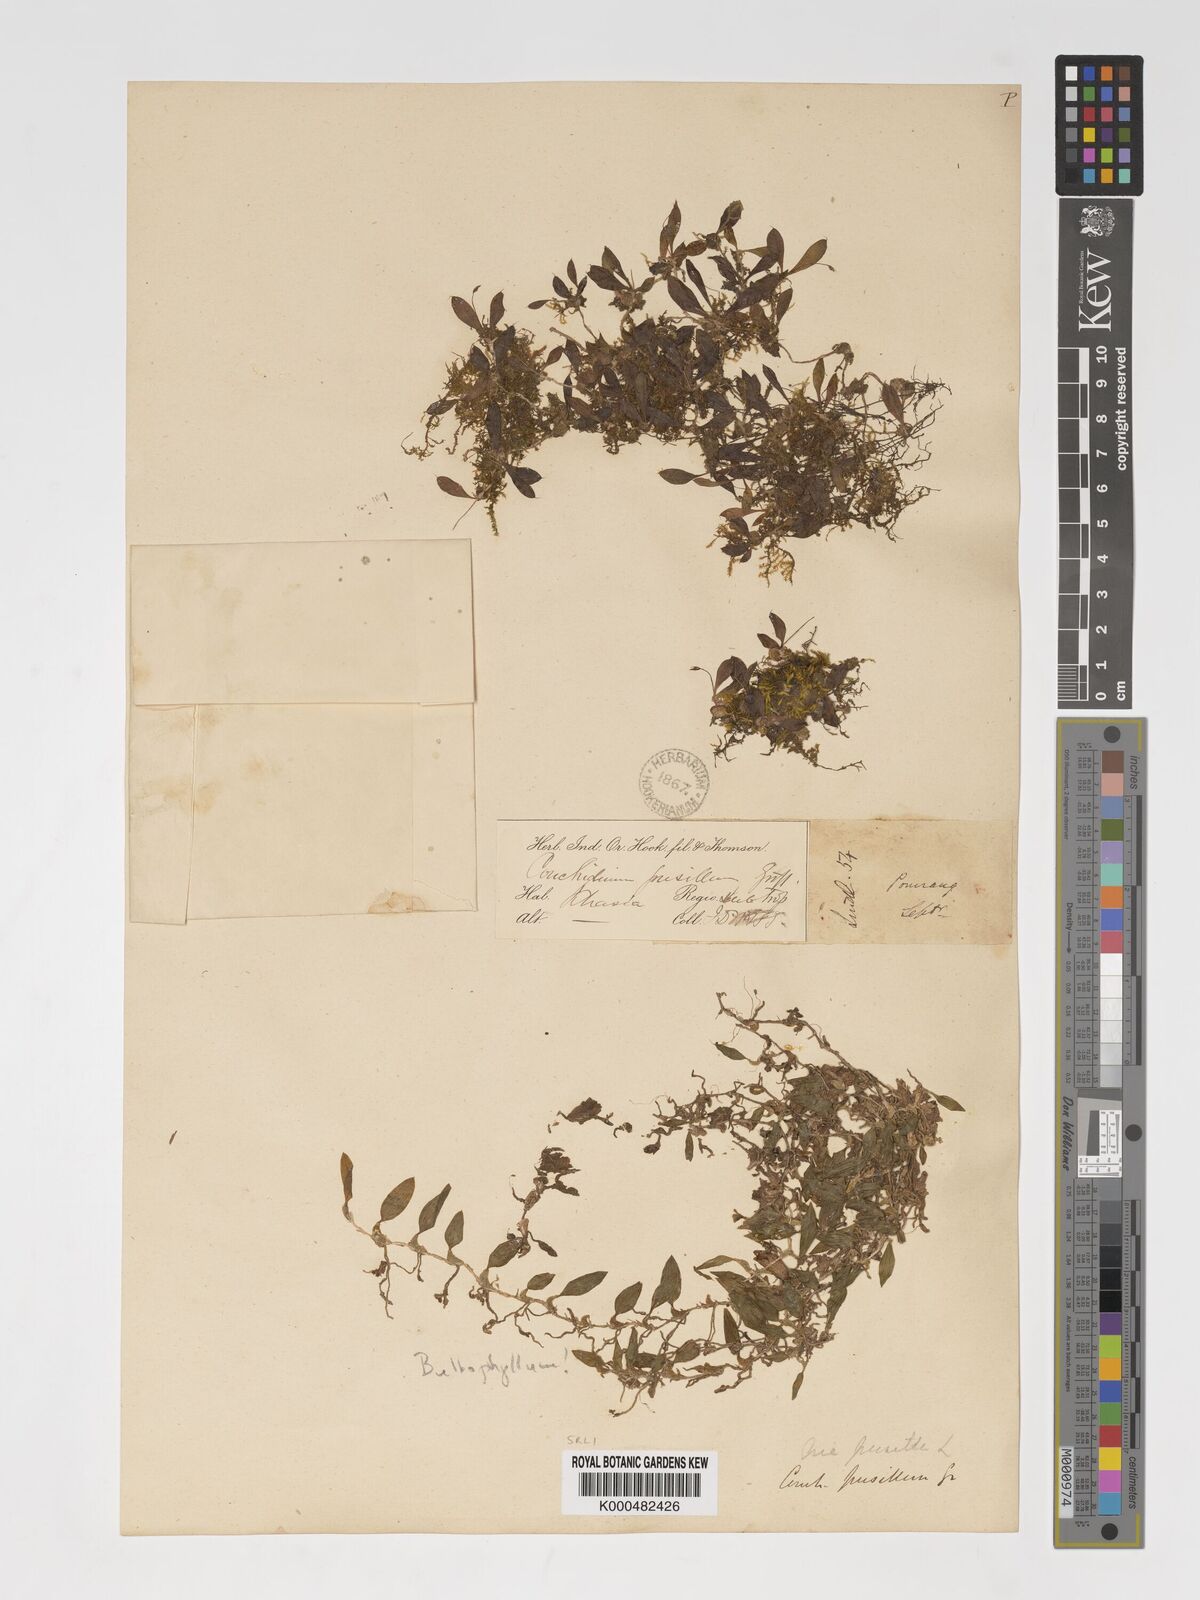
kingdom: Plantae
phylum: Tracheophyta
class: Liliopsida
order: Asparagales
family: Orchidaceae
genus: Porpax
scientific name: Porpax pusilla
